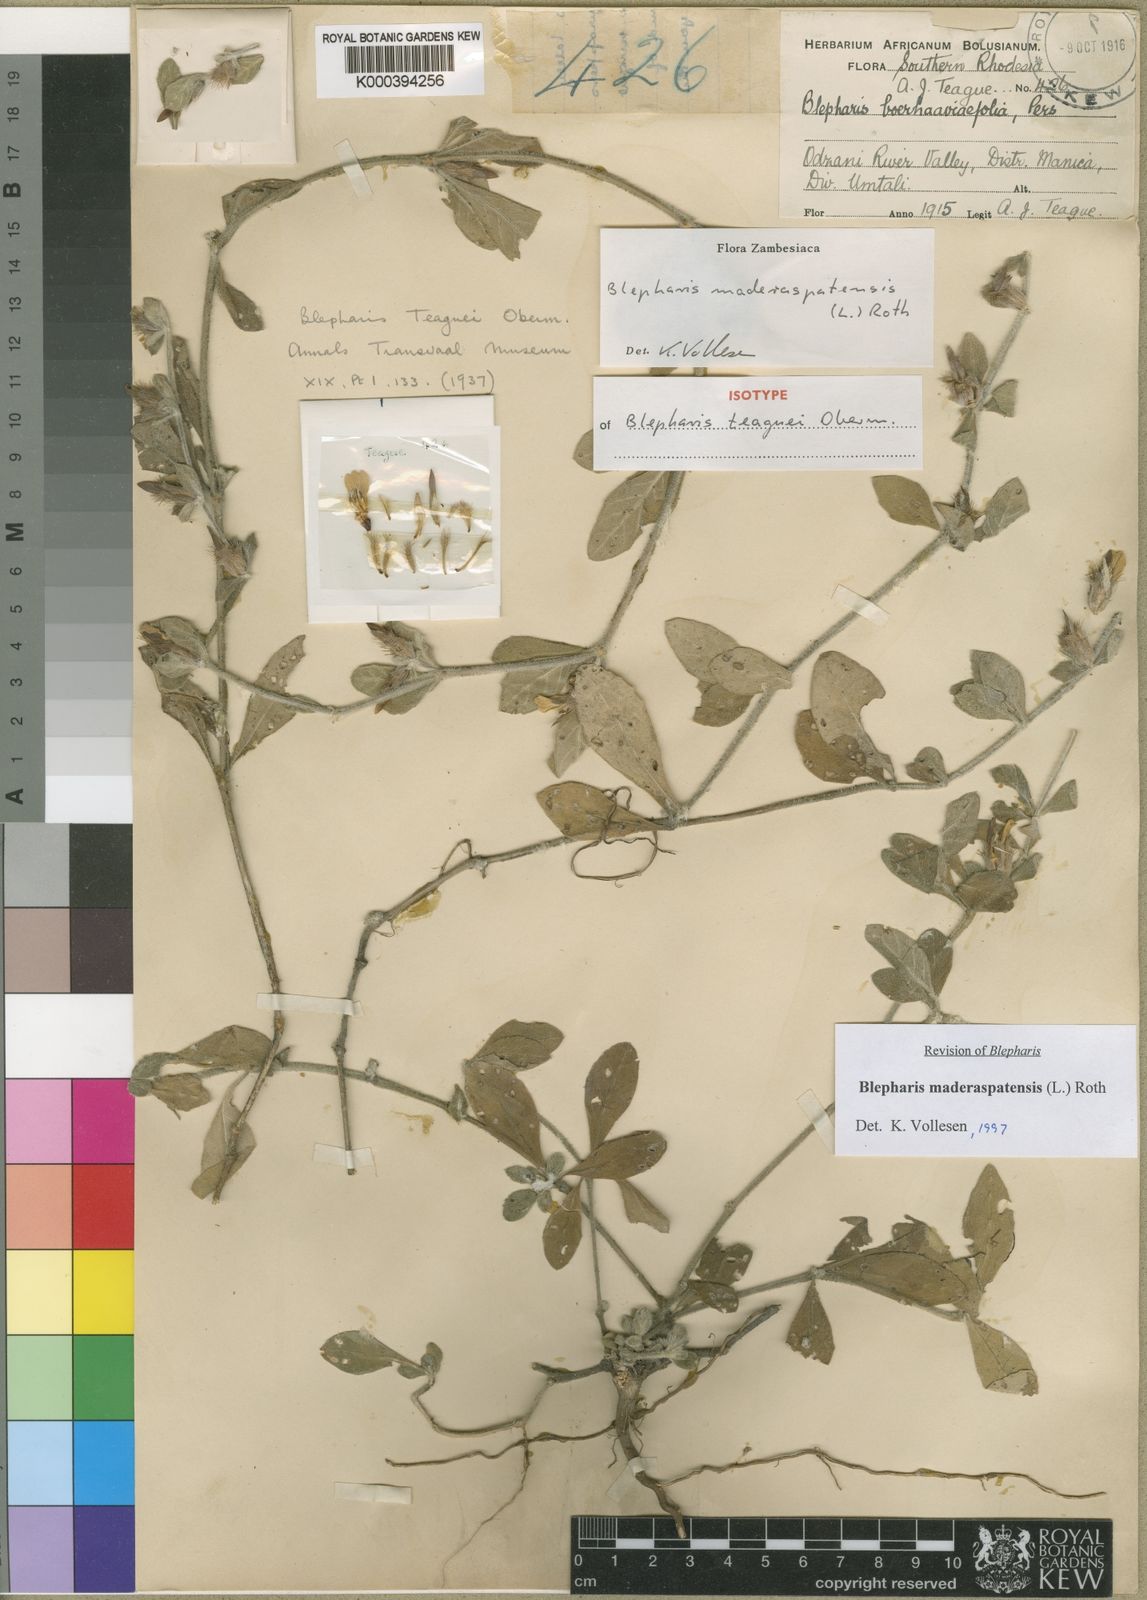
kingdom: Plantae
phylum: Tracheophyta
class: Magnoliopsida
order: Lamiales
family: Acanthaceae
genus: Blepharis
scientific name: Blepharis maderaspatensis
